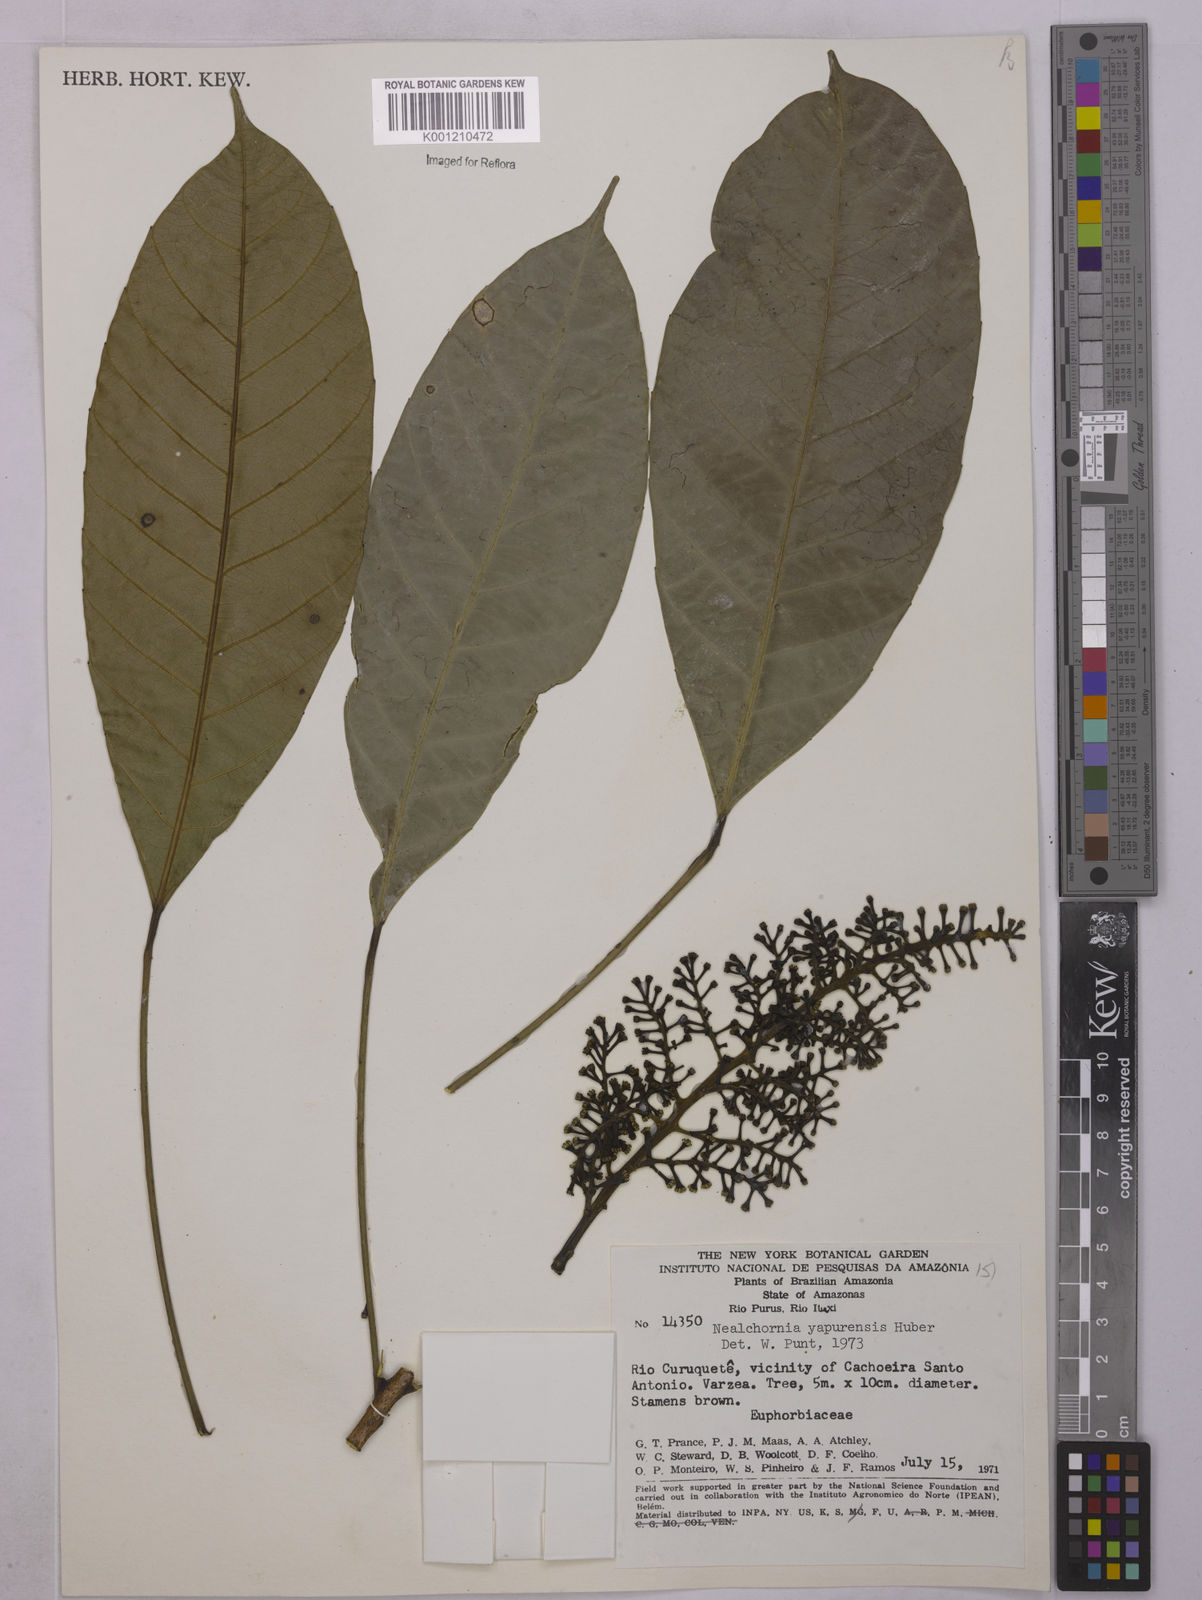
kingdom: Plantae
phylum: Tracheophyta
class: Magnoliopsida
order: Malpighiales
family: Euphorbiaceae
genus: Nealchornea
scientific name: Nealchornea yapurensis
